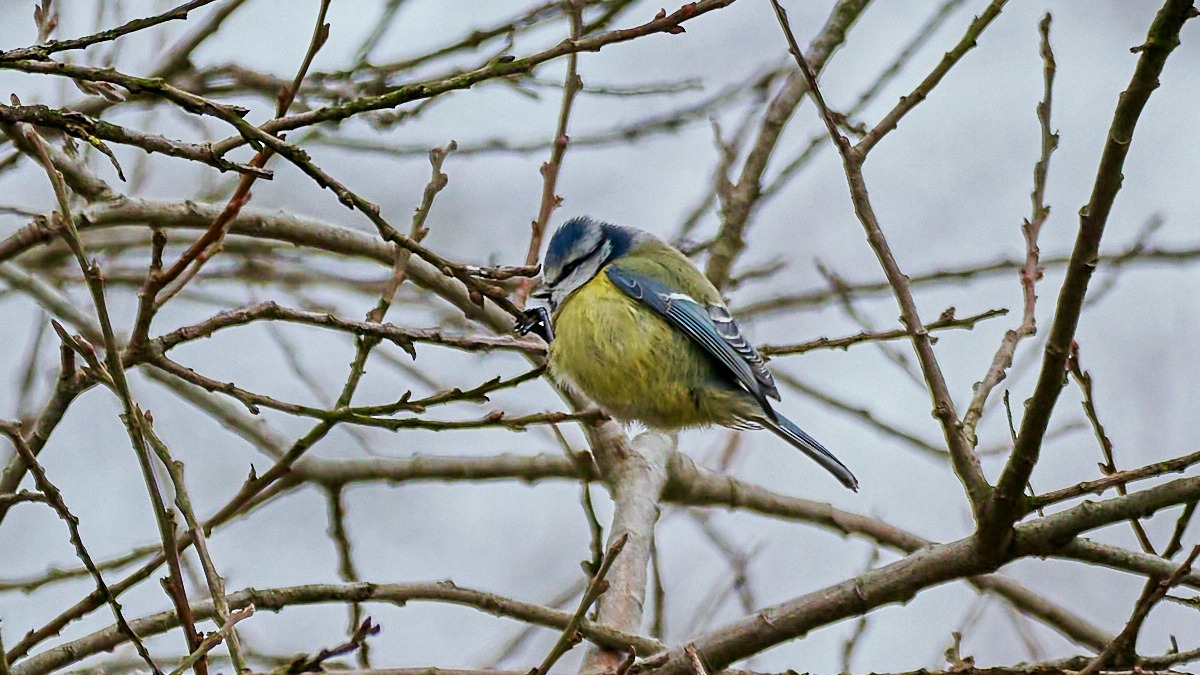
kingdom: Animalia
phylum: Chordata
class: Aves
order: Passeriformes
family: Paridae
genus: Cyanistes
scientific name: Cyanistes caeruleus
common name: Blåmejse
